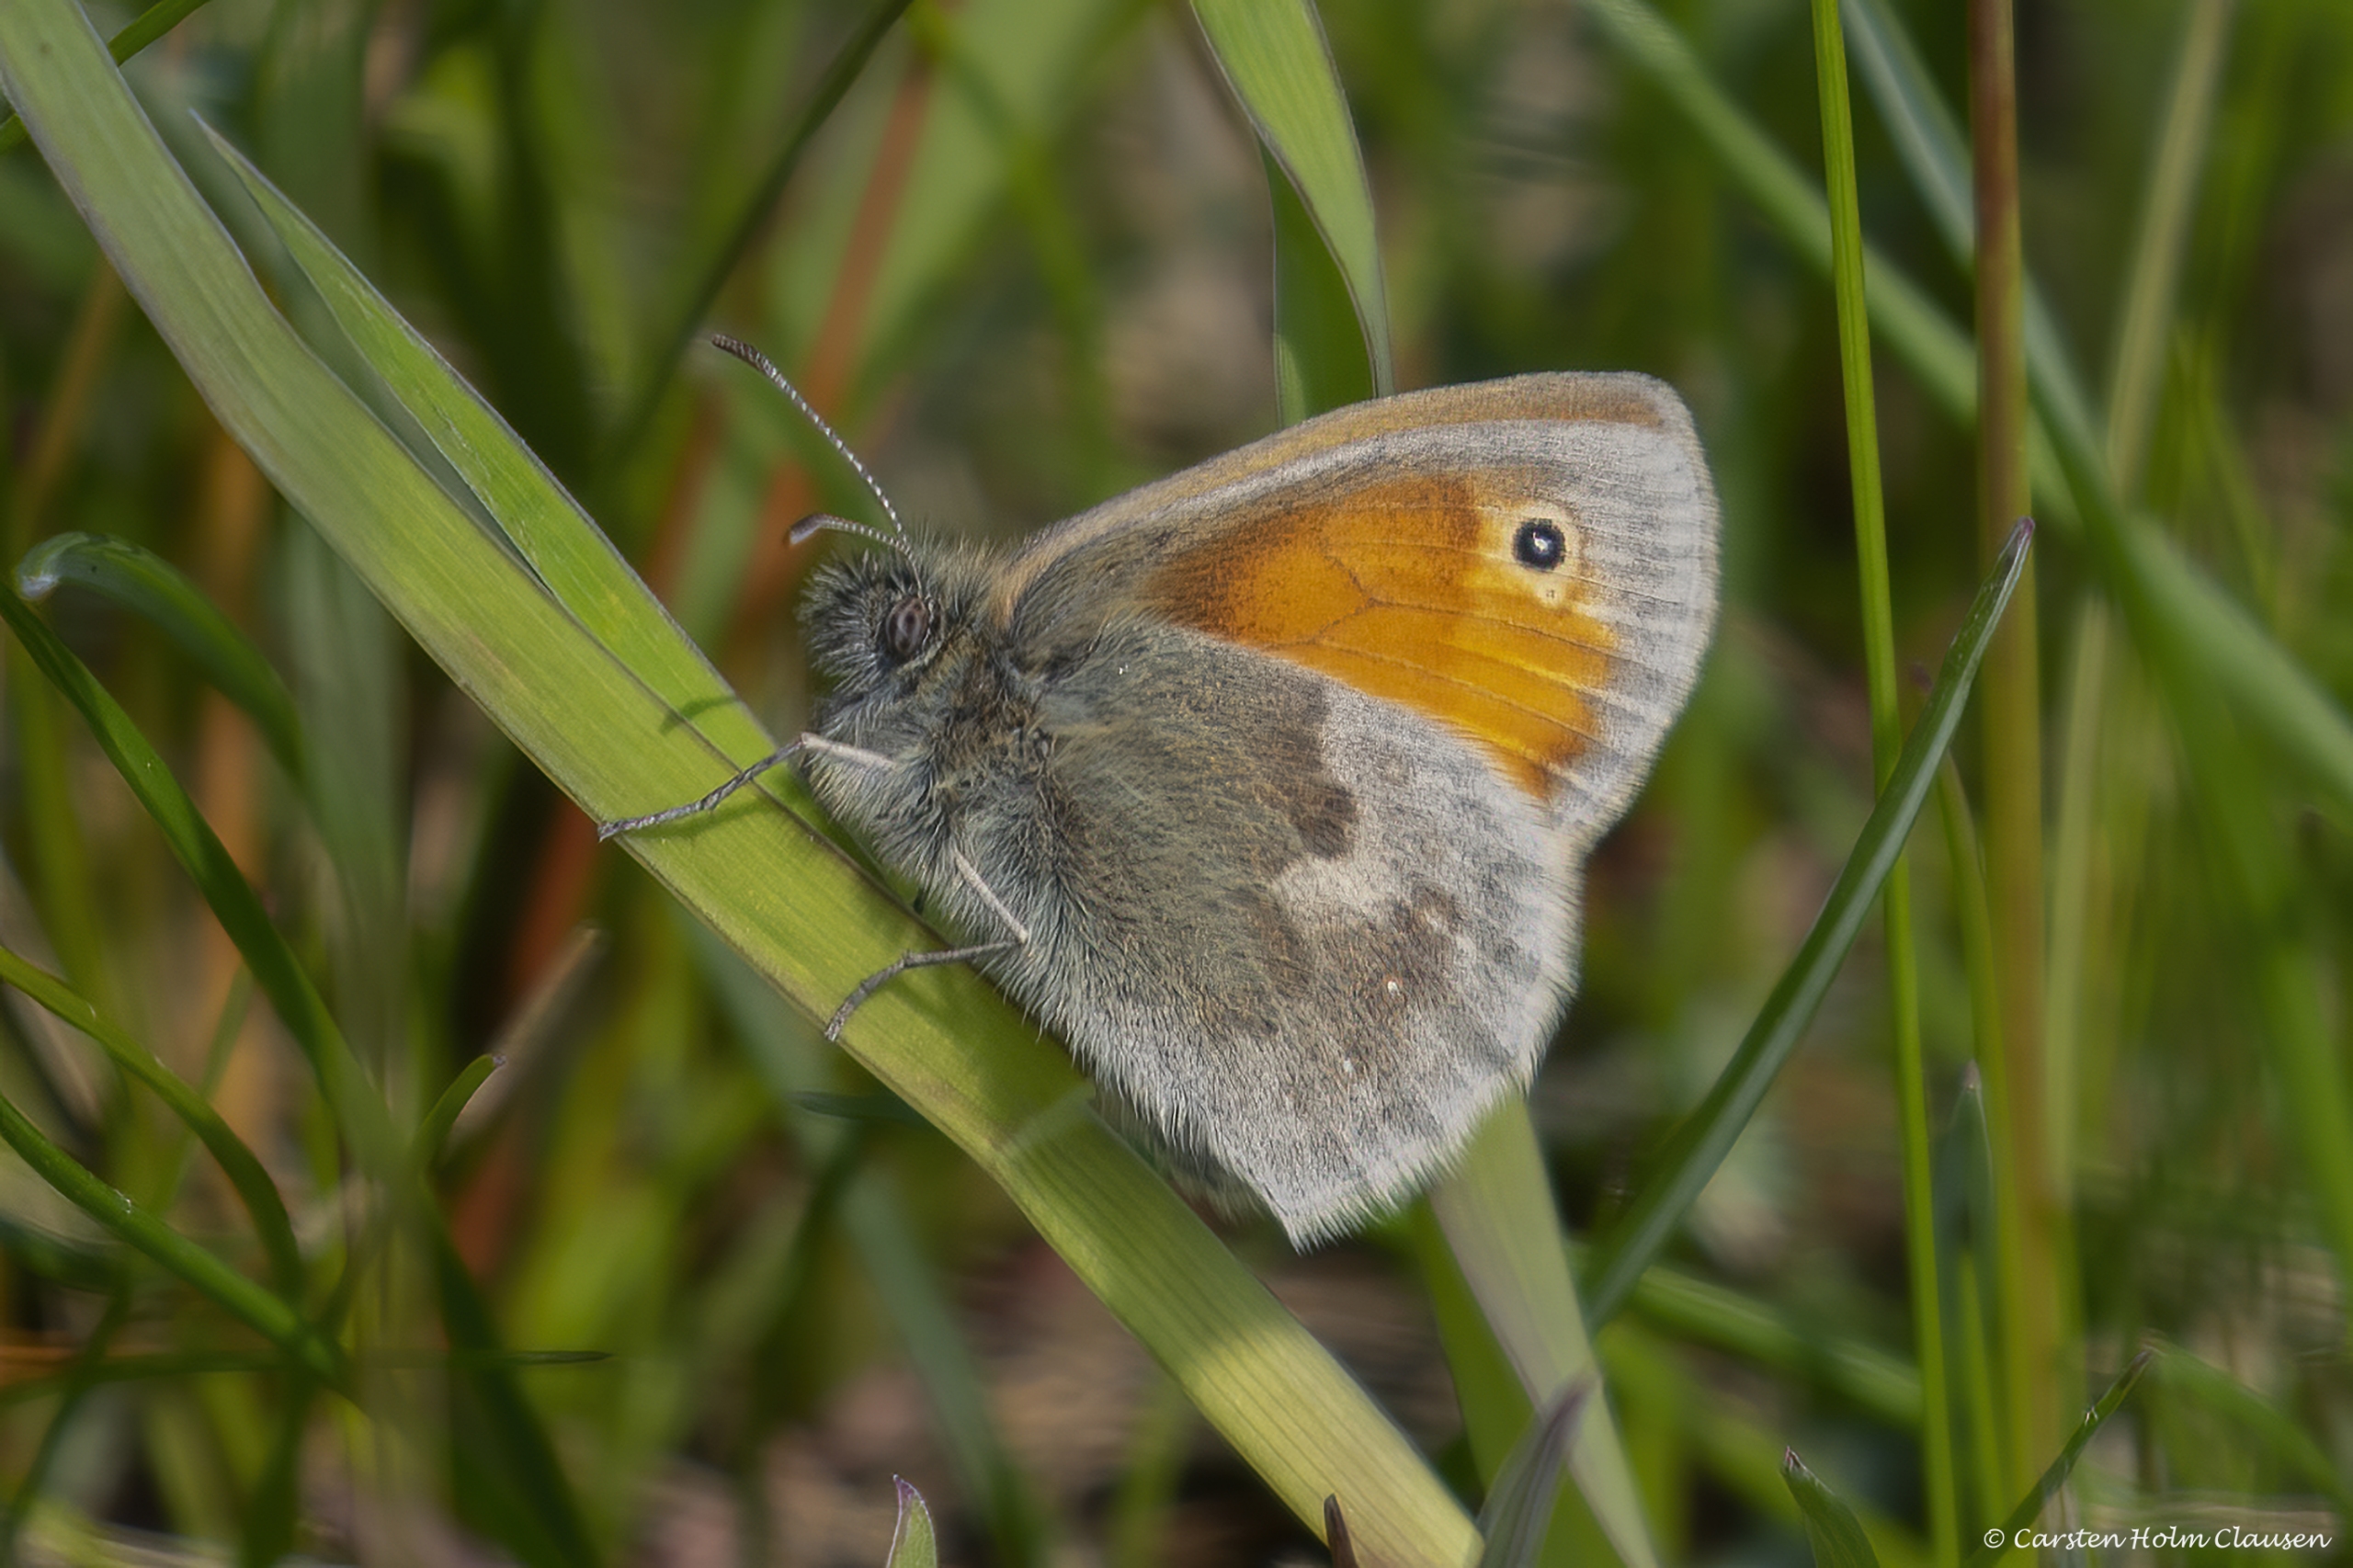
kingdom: Animalia
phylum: Arthropoda
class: Insecta
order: Lepidoptera
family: Nymphalidae
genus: Coenonympha
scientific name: Coenonympha pamphilus
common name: Okkergul randøje
